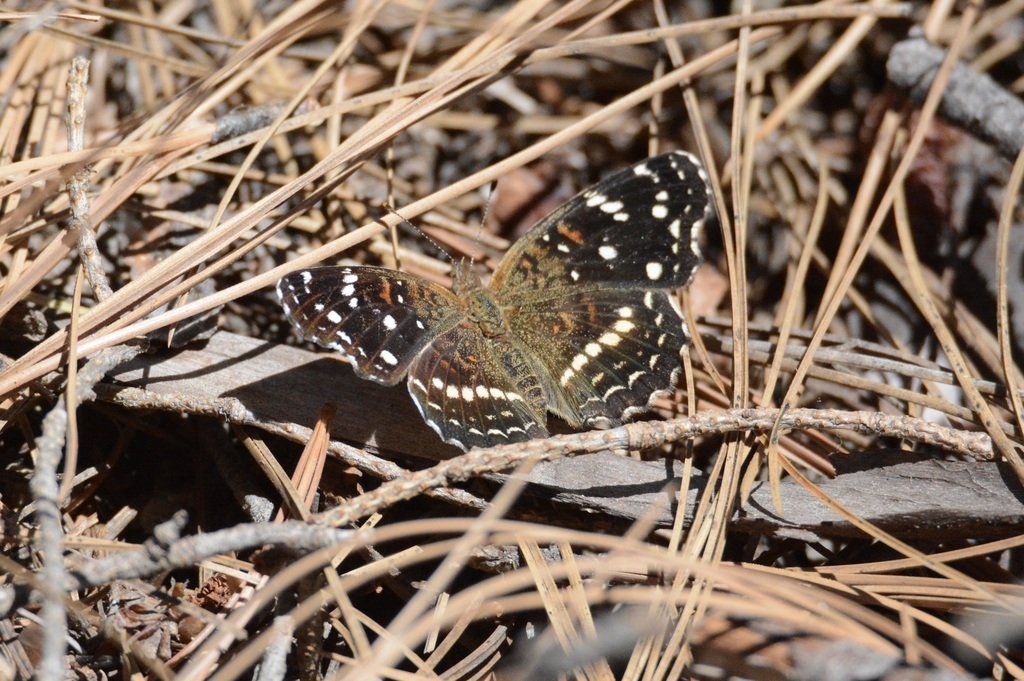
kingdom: Animalia
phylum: Arthropoda
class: Insecta
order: Lepidoptera
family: Nymphalidae
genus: Anthanassa
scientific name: Anthanassa texana
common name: Texan Crescent
